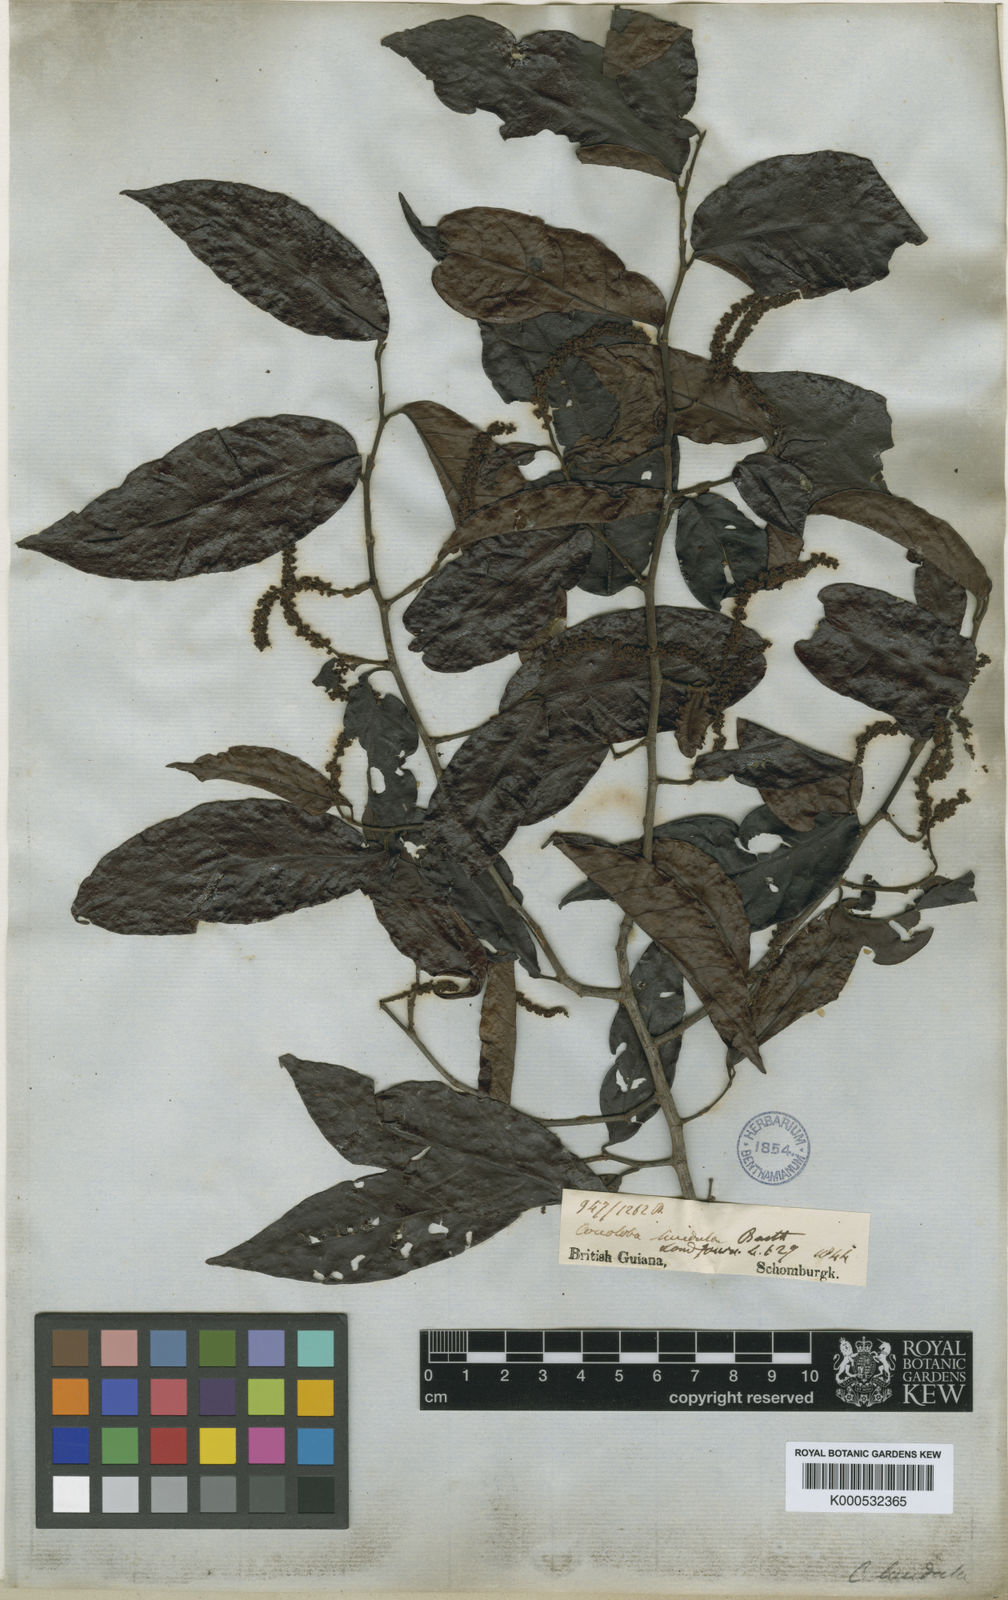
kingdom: Plantae
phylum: Tracheophyta
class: Magnoliopsida
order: Caryophyllales
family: Polygonaceae
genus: Coccoloba
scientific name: Coccoloba lucidula
